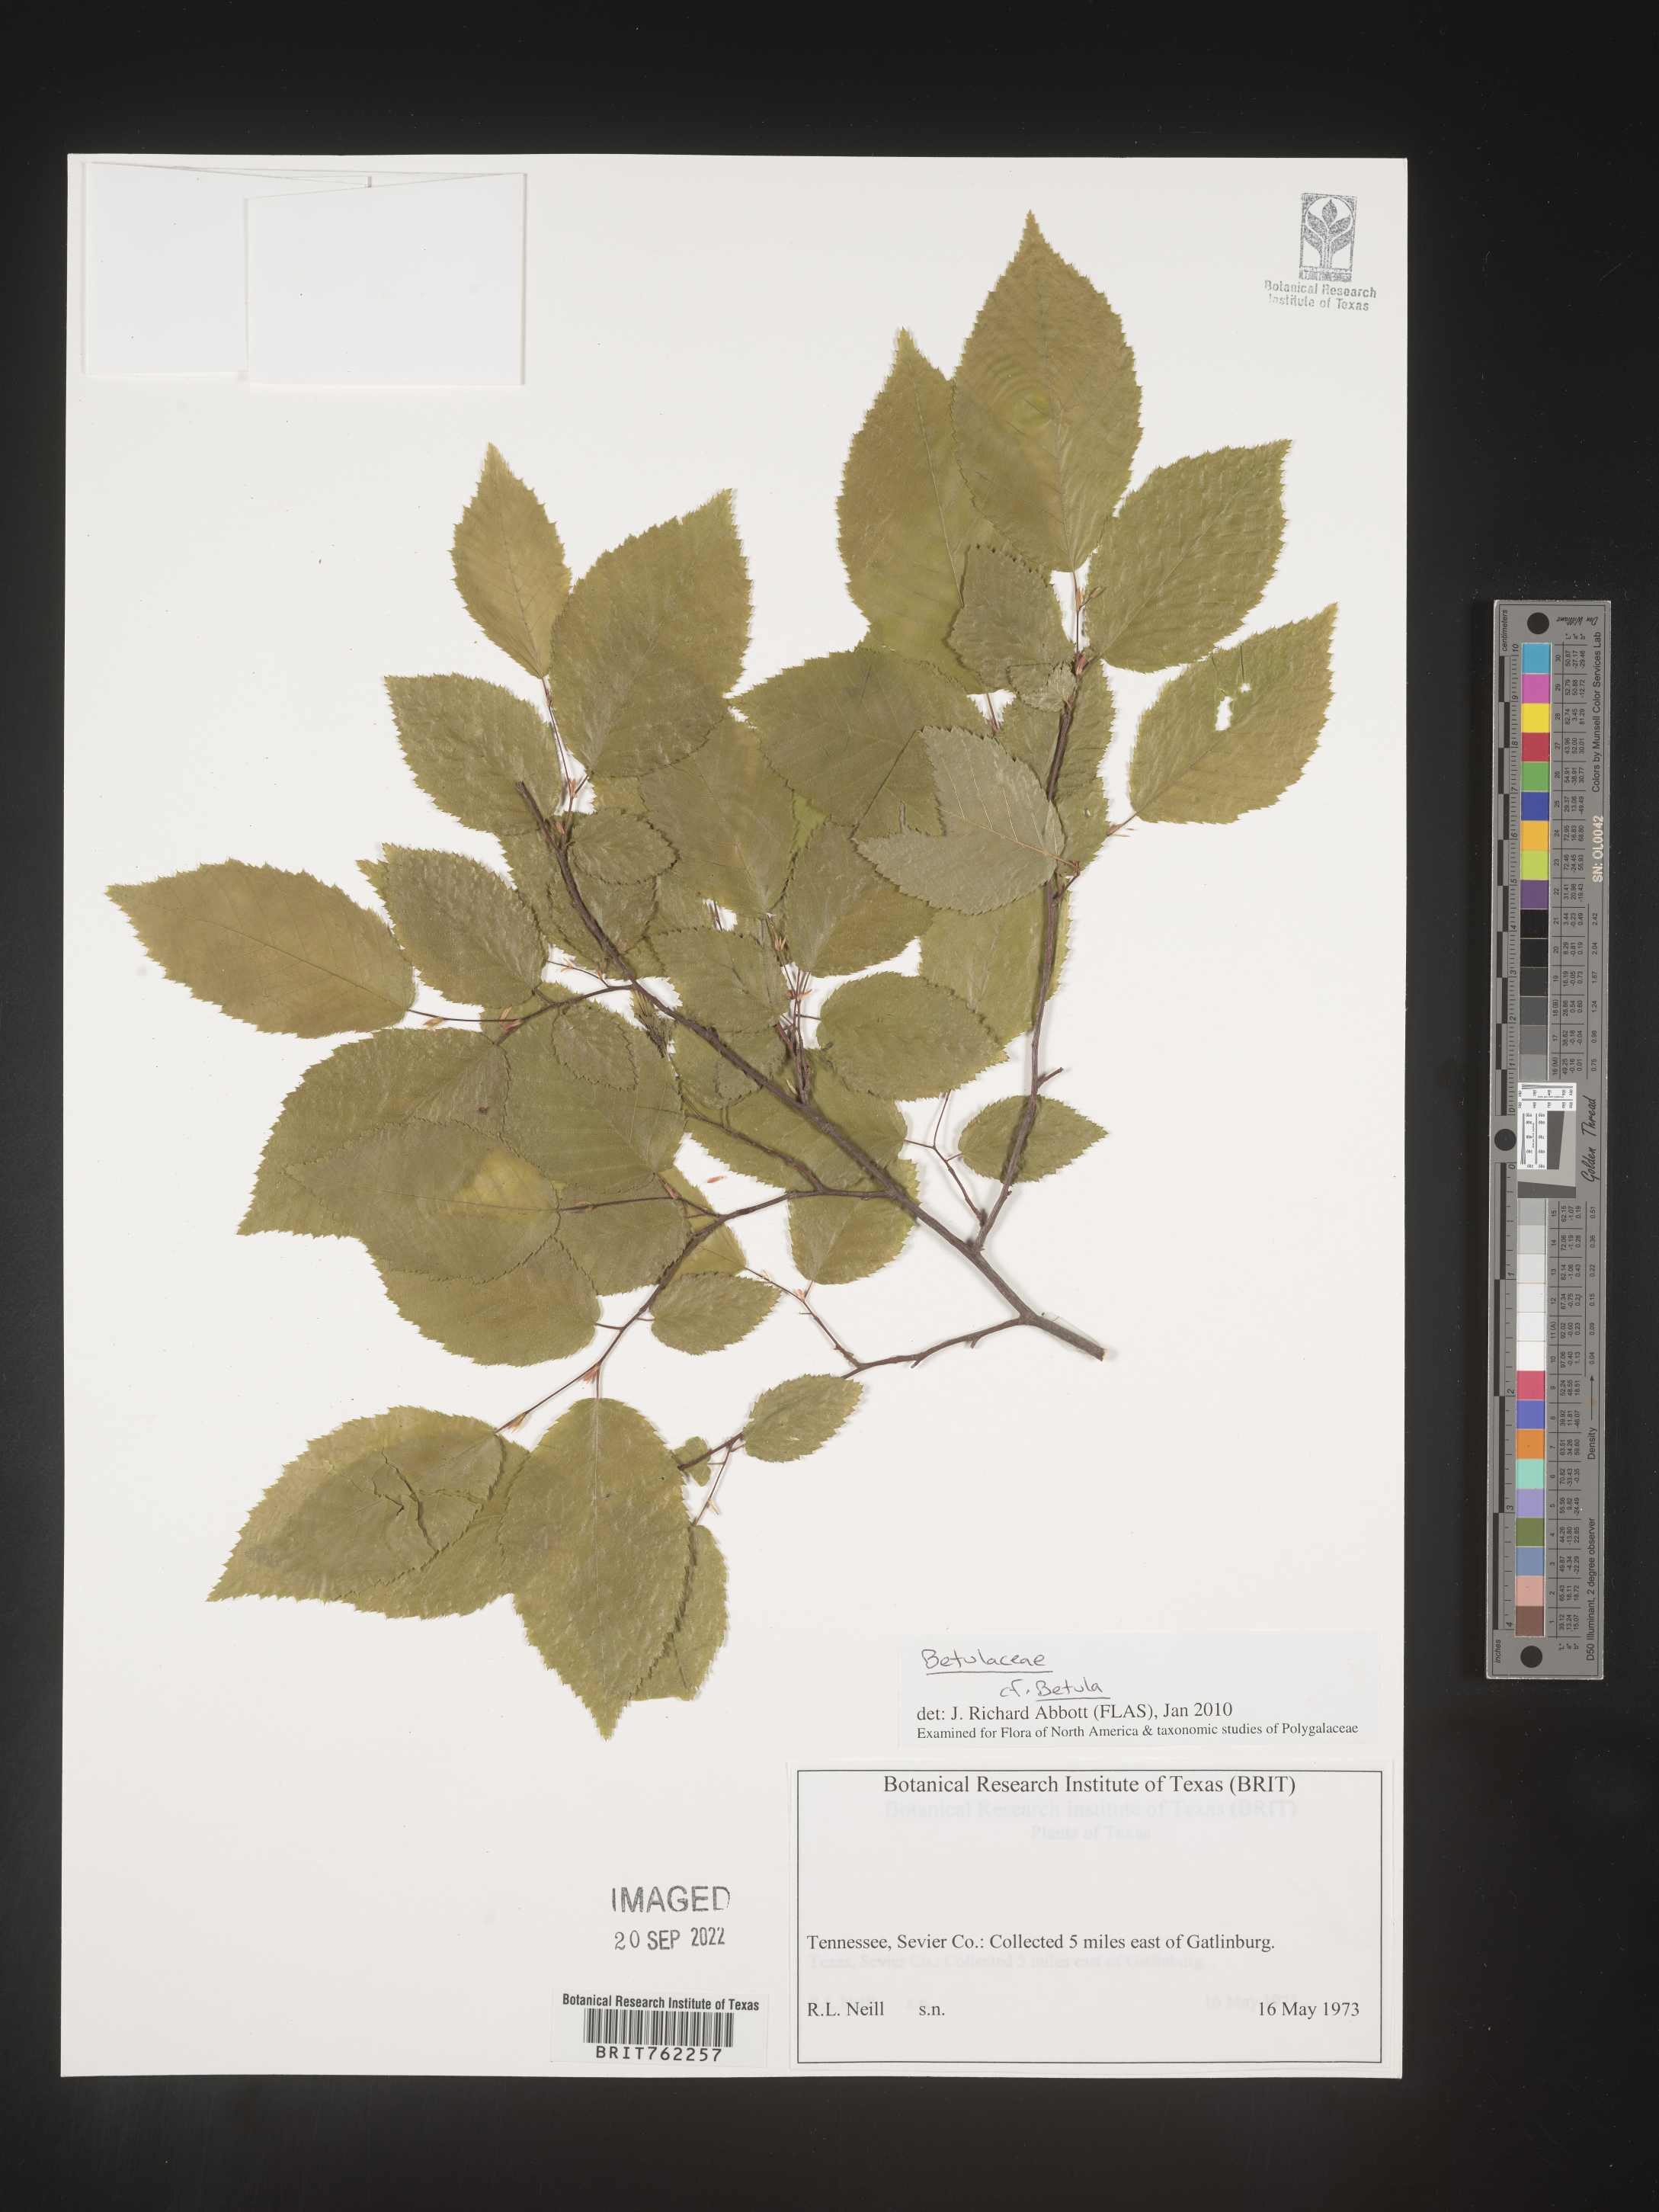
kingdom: Plantae
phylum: Tracheophyta
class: Magnoliopsida
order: Fagales
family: Betulaceae
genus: Betula
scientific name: Betula
